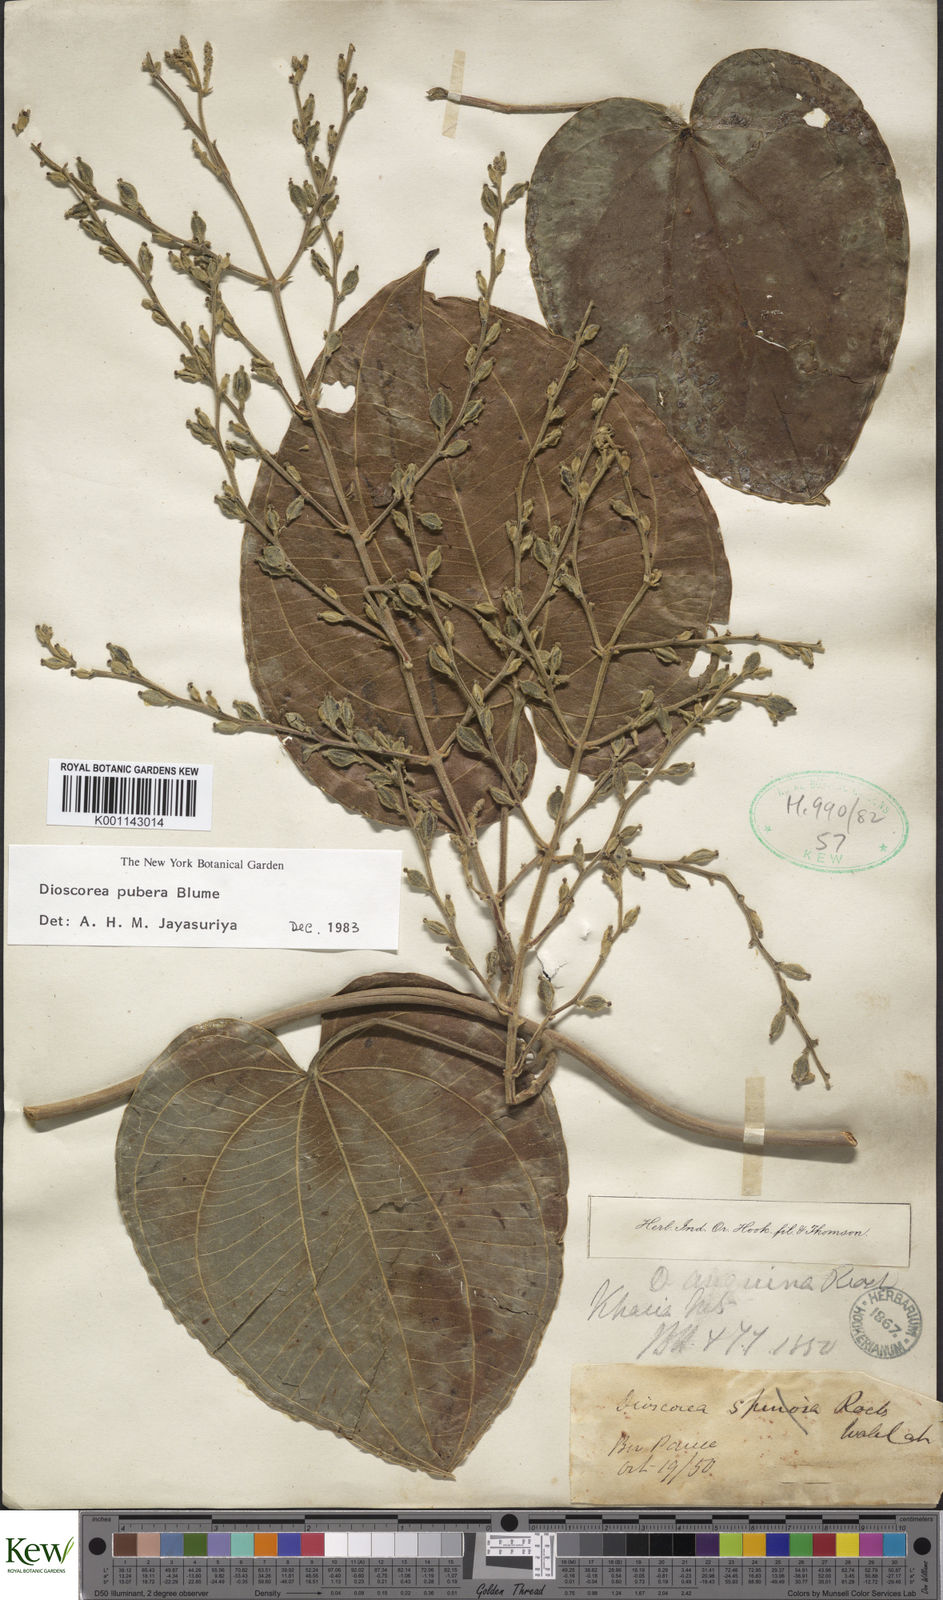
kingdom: Plantae
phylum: Tracheophyta
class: Liliopsida
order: Dioscoreales
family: Dioscoreaceae
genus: Dioscorea
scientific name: Dioscorea pubera
